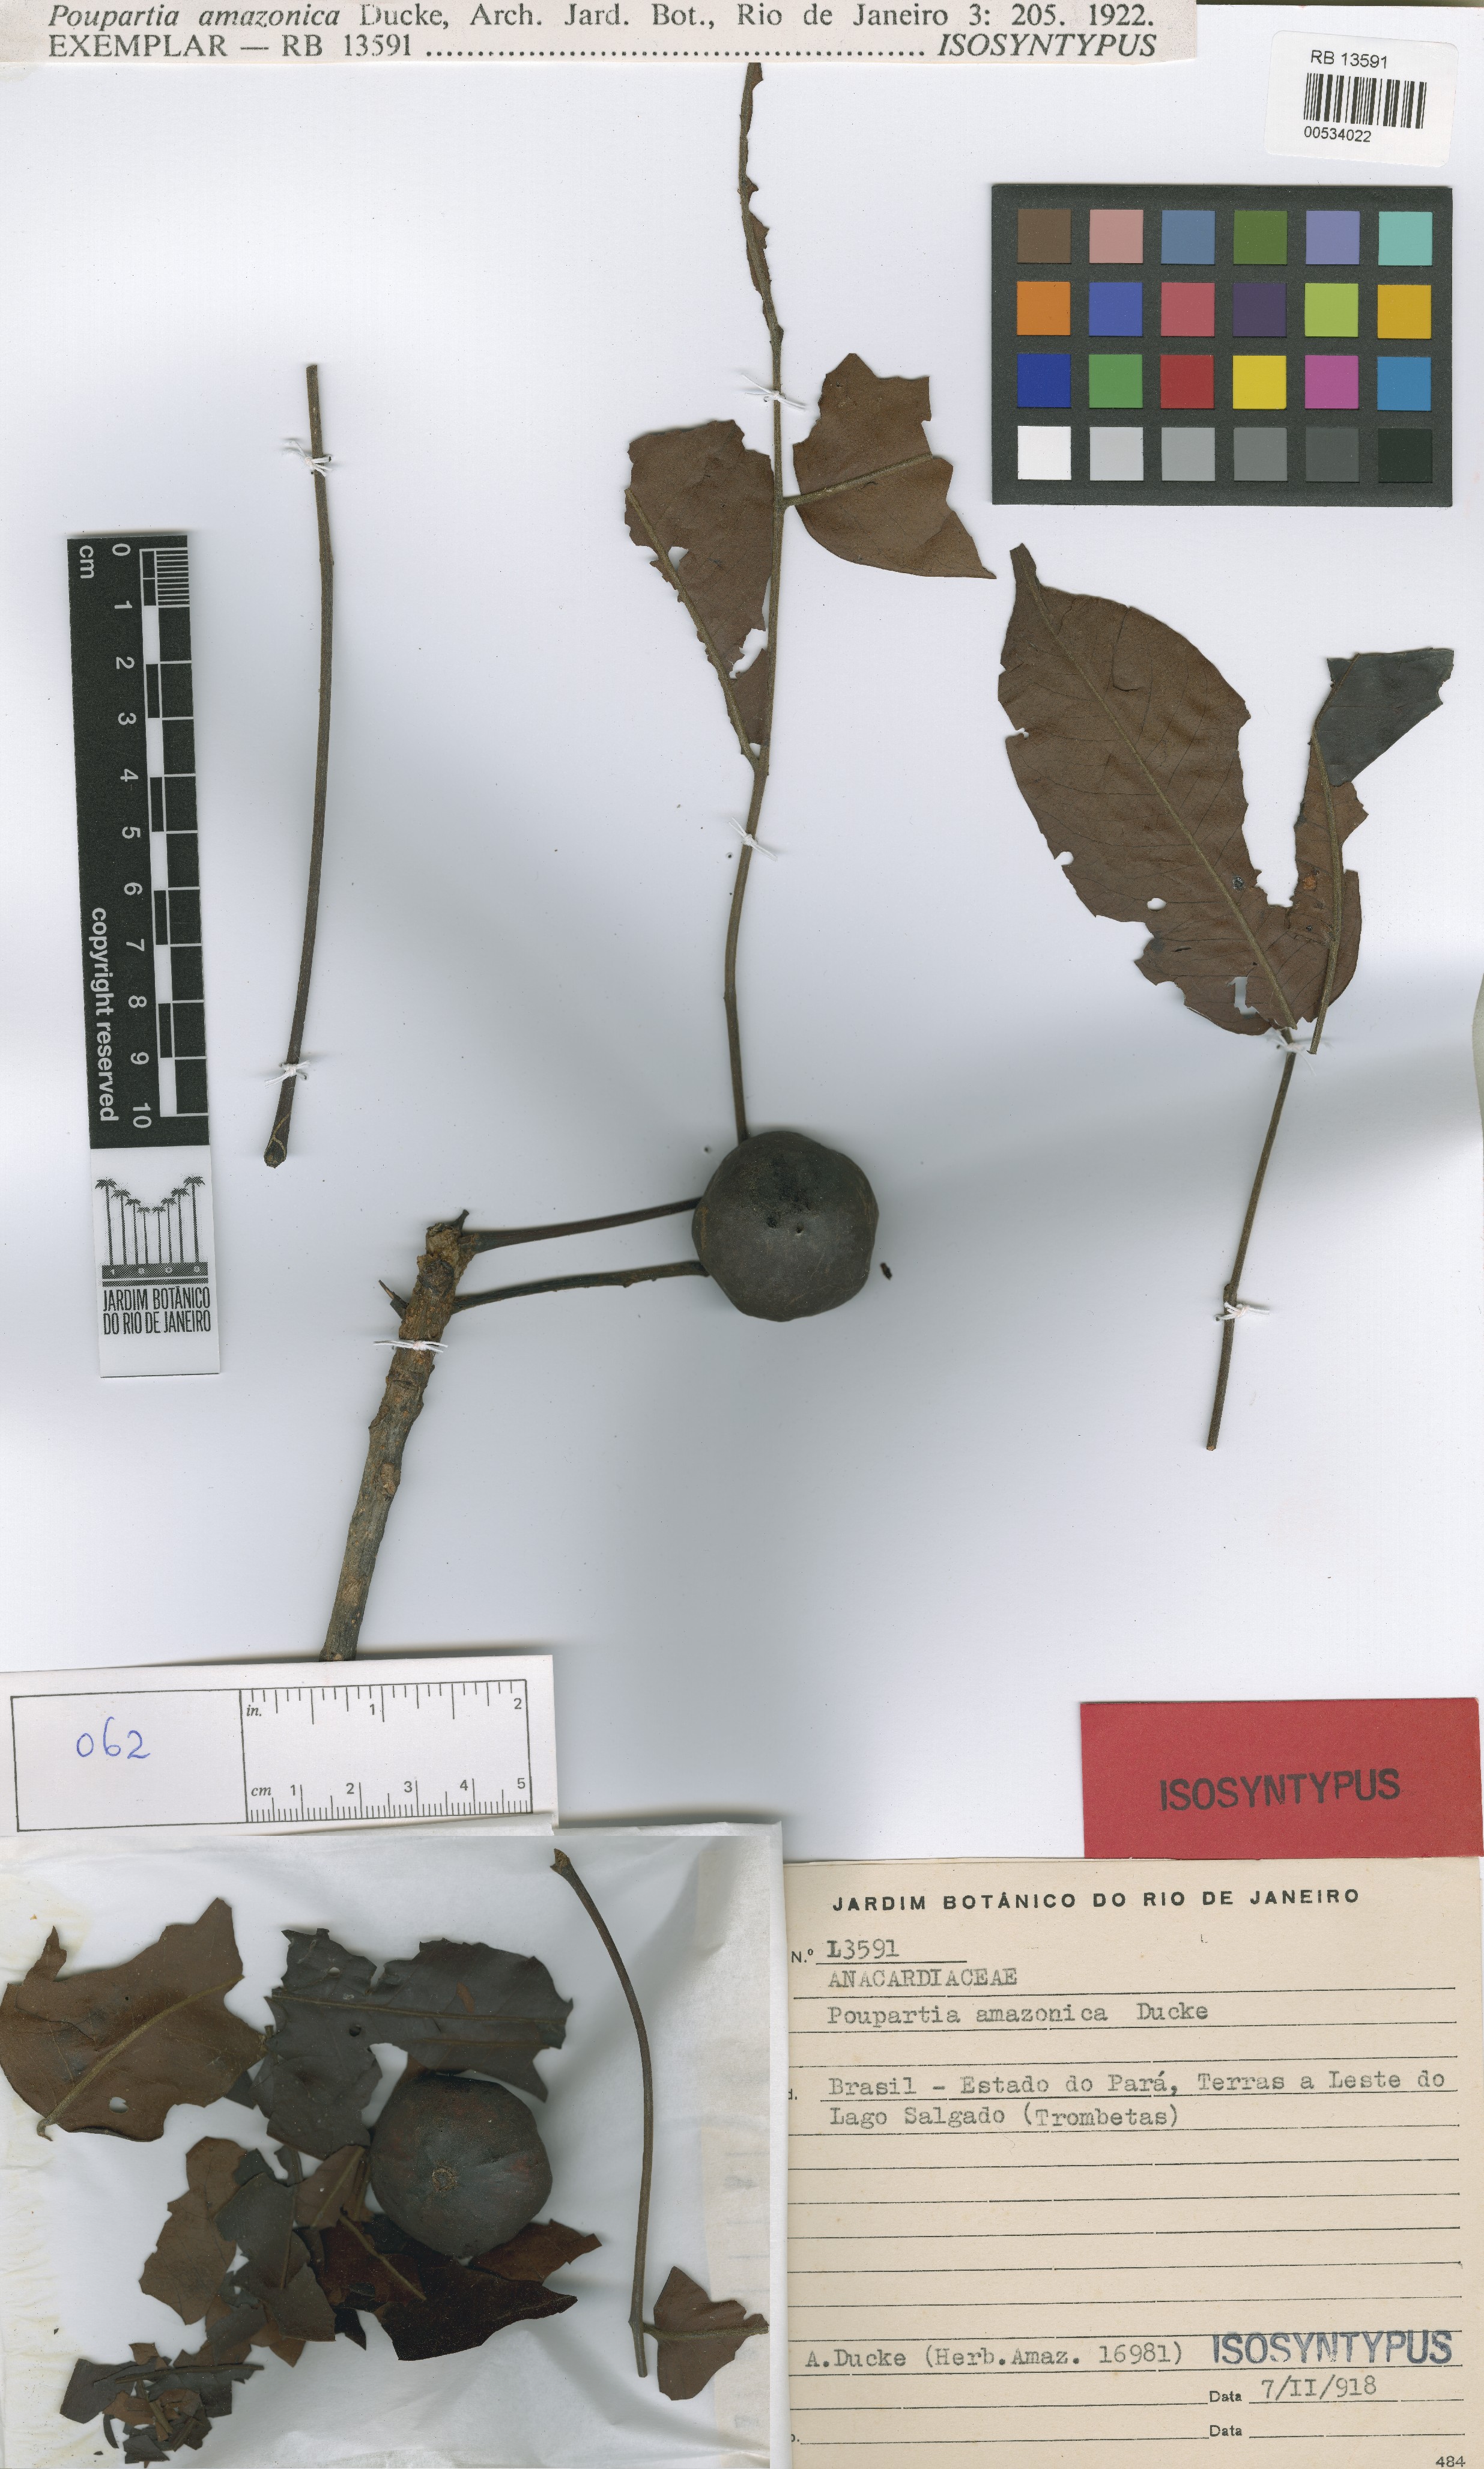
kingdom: Plantae
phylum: Tracheophyta
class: Magnoliopsida
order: Sapindales
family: Anacardiaceae
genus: Antrocaryon
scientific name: Antrocaryon amazonicum
